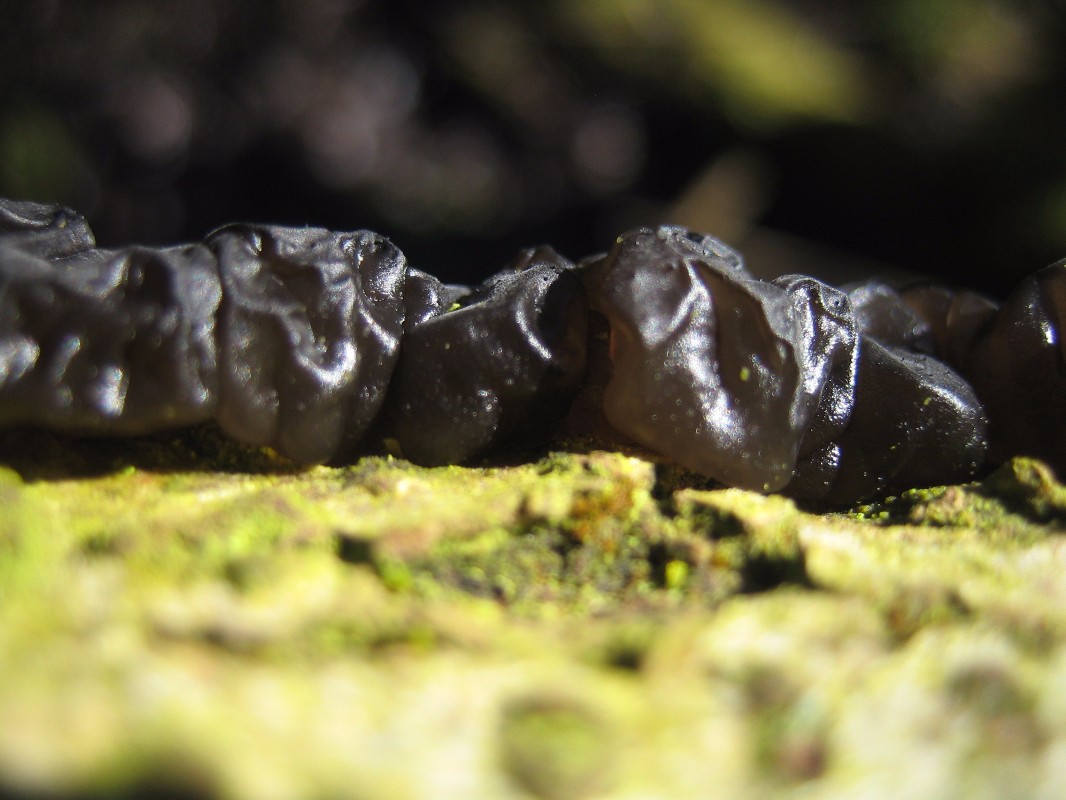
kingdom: Fungi
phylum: Basidiomycota
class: Agaricomycetes
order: Auriculariales
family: Auriculariaceae
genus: Exidia
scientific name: Exidia nigricans
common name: almindelig bævretop
